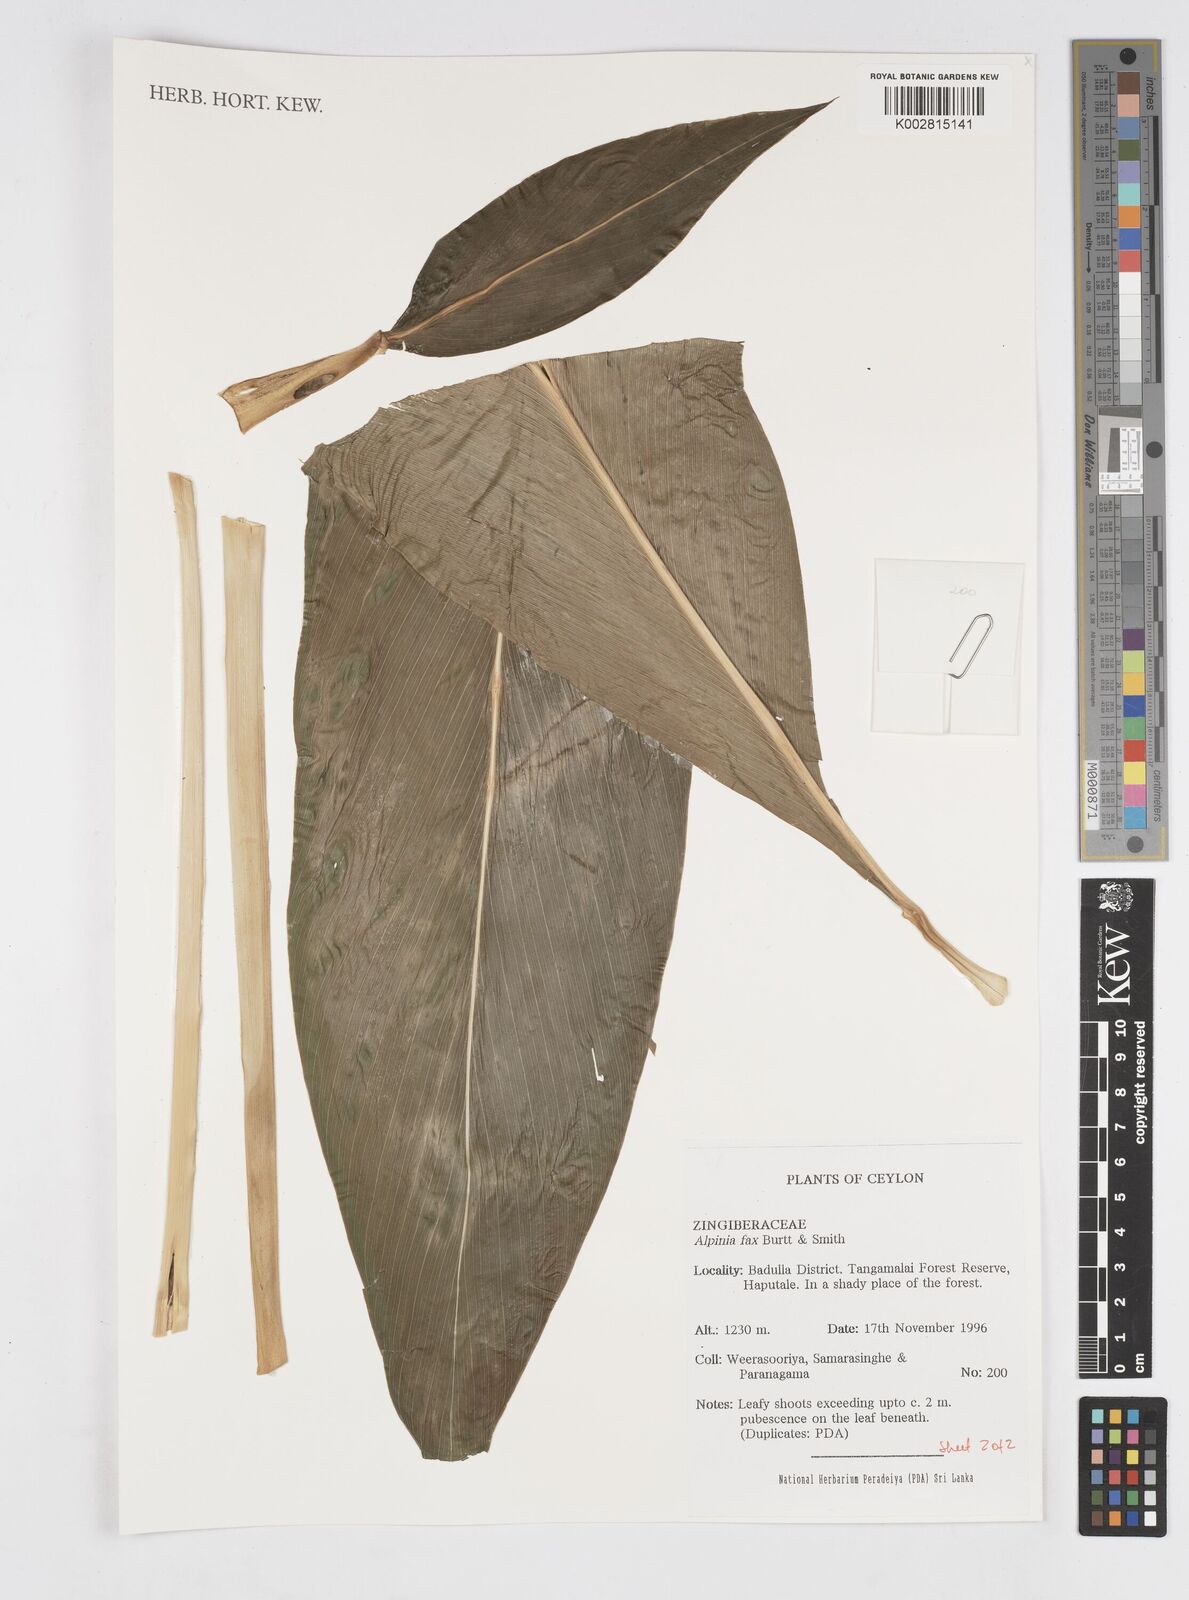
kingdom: Plantae
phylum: Tracheophyta
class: Liliopsida
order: Zingiberales
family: Zingiberaceae
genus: Alpinia
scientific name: Alpinia fax
